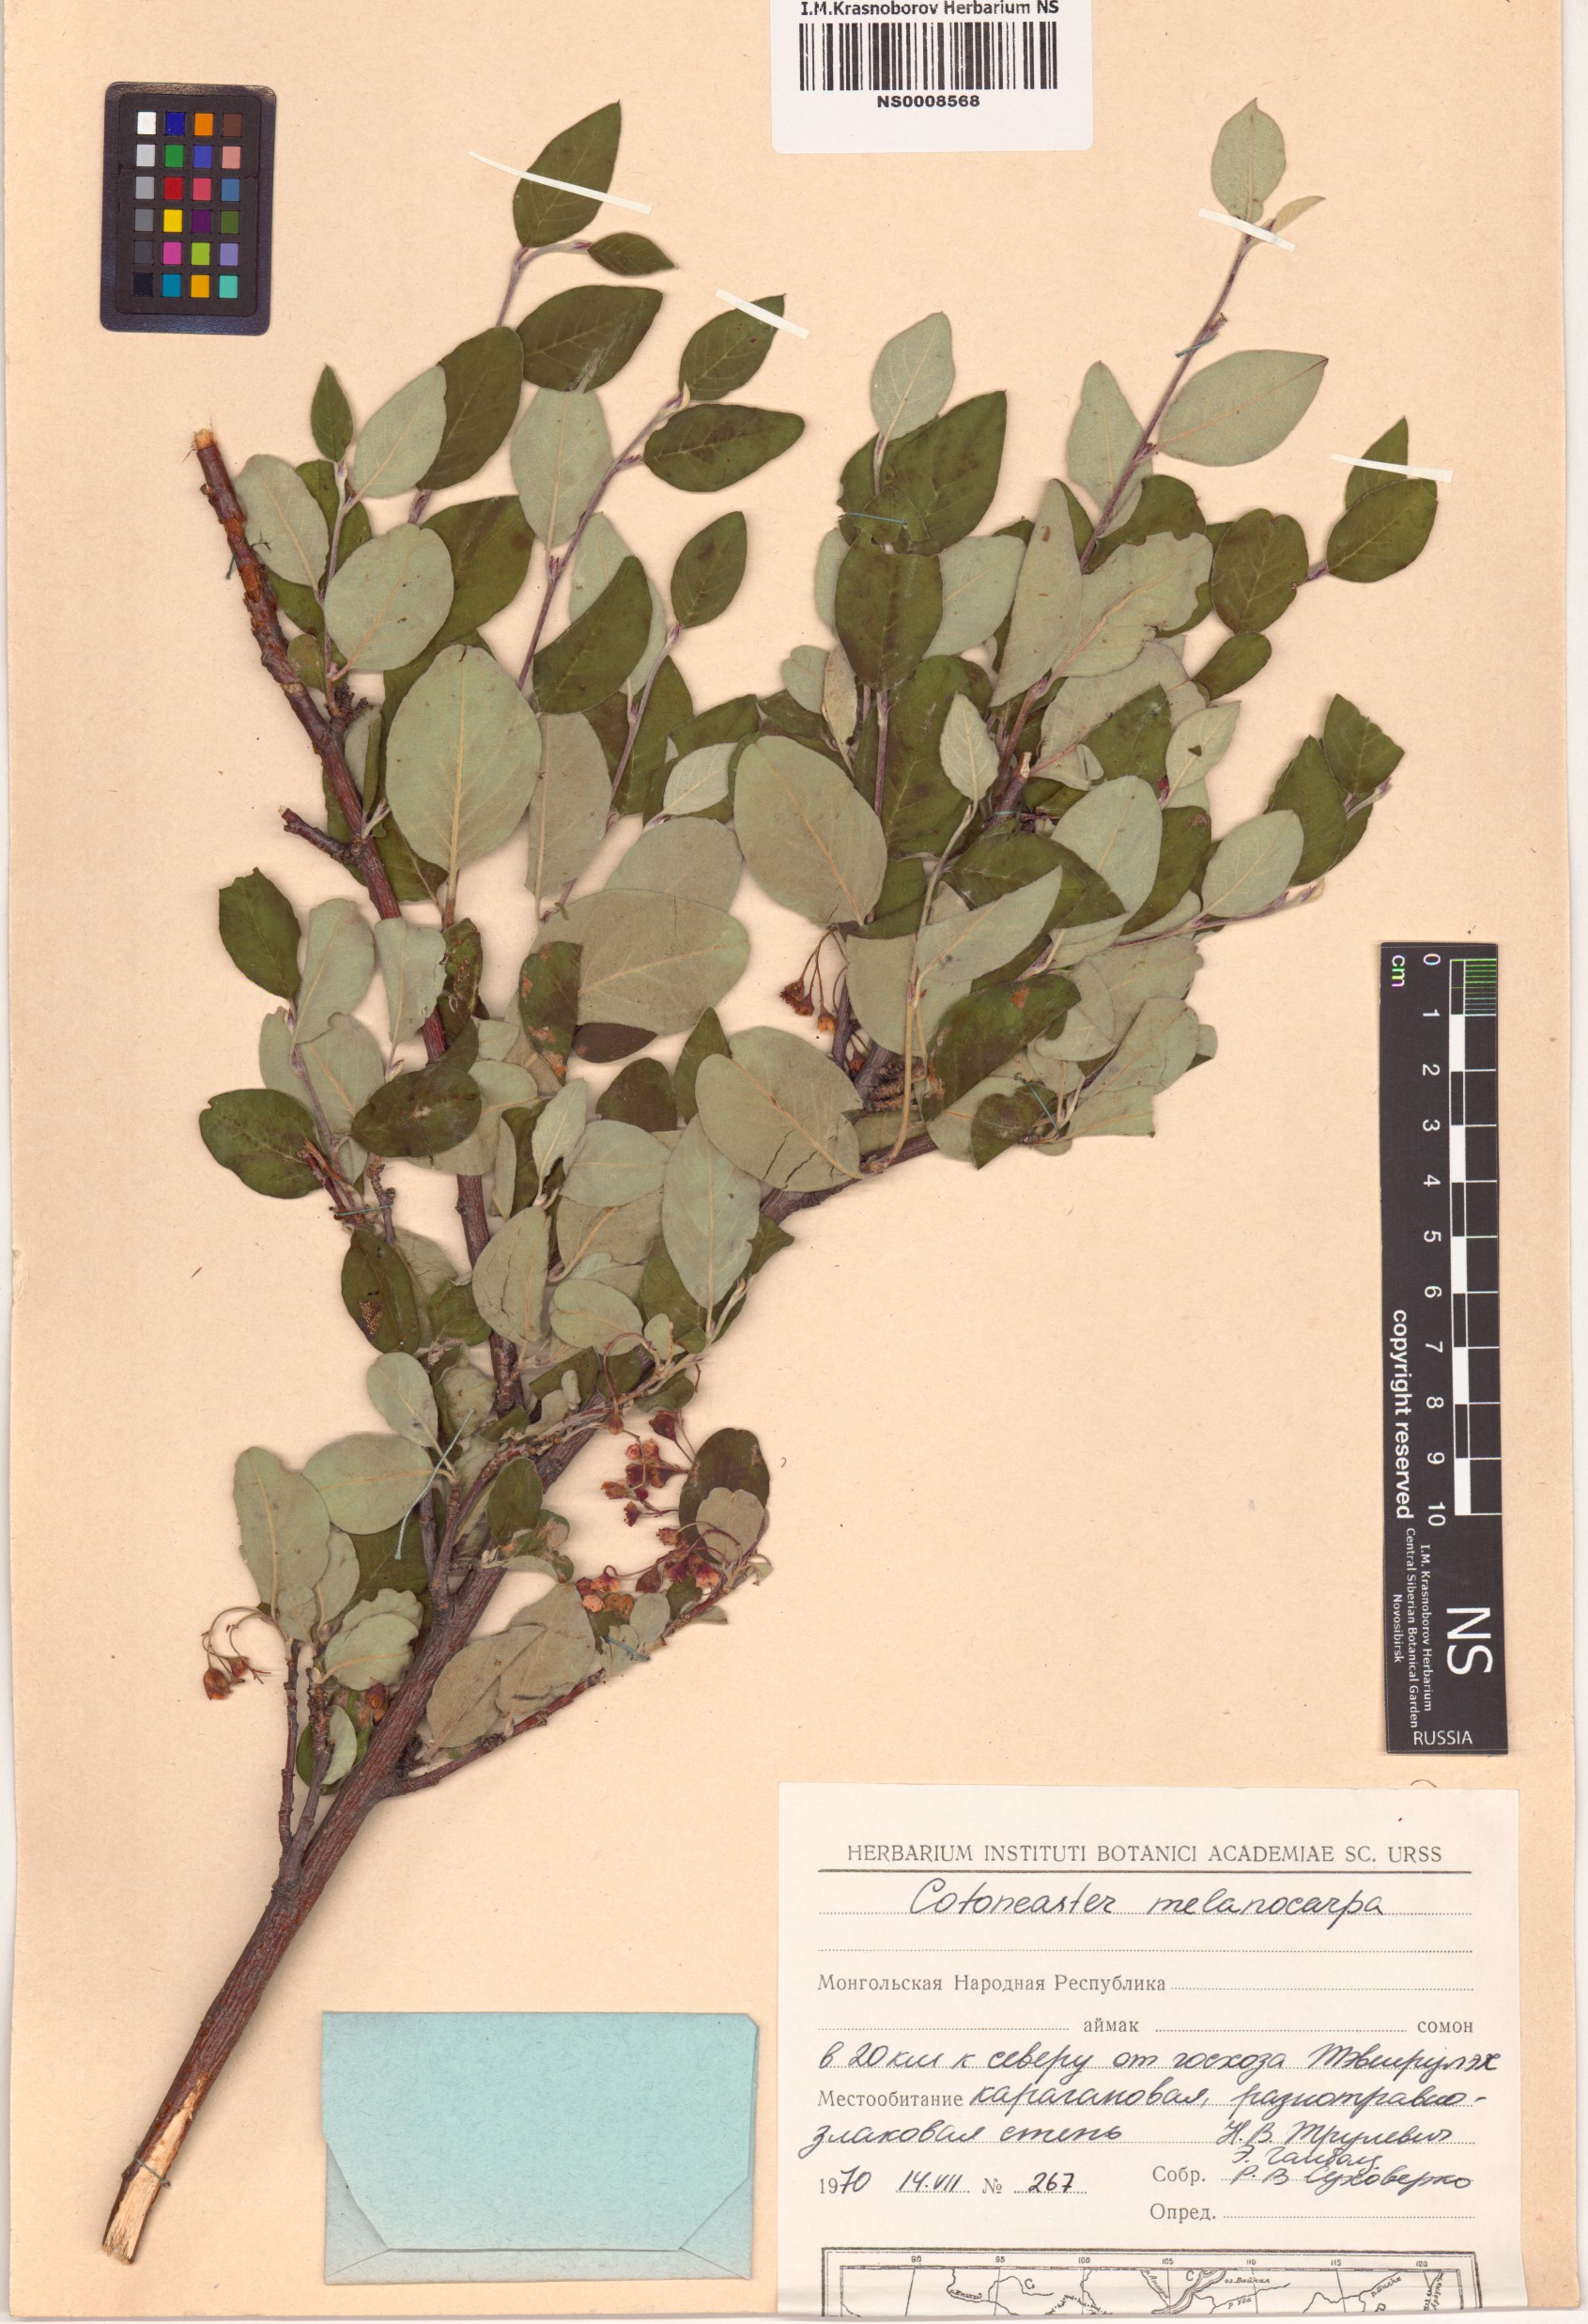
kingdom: Plantae
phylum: Tracheophyta
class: Magnoliopsida
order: Rosales
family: Rosaceae
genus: Cotoneaster
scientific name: Cotoneaster melanocarpus
